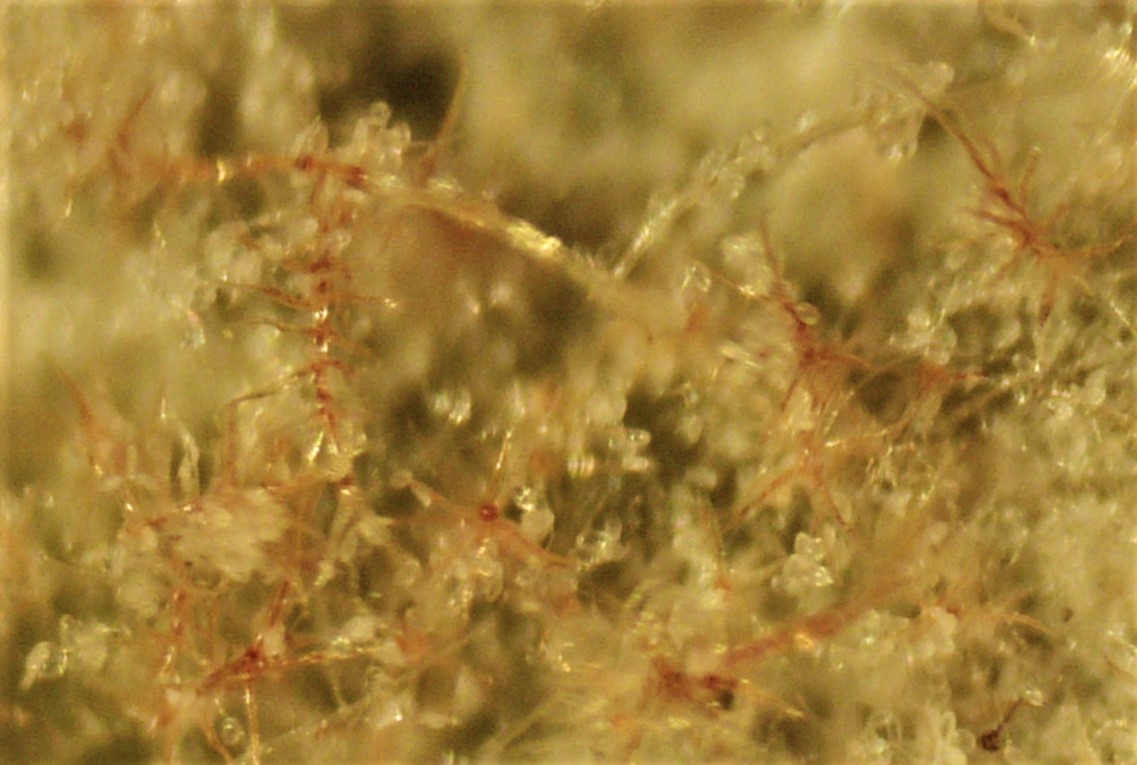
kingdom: Fungi
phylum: Ascomycota
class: Leotiomycetes
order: Helotiales
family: Erysiphaceae
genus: Erysiphe
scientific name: Erysiphe platani
